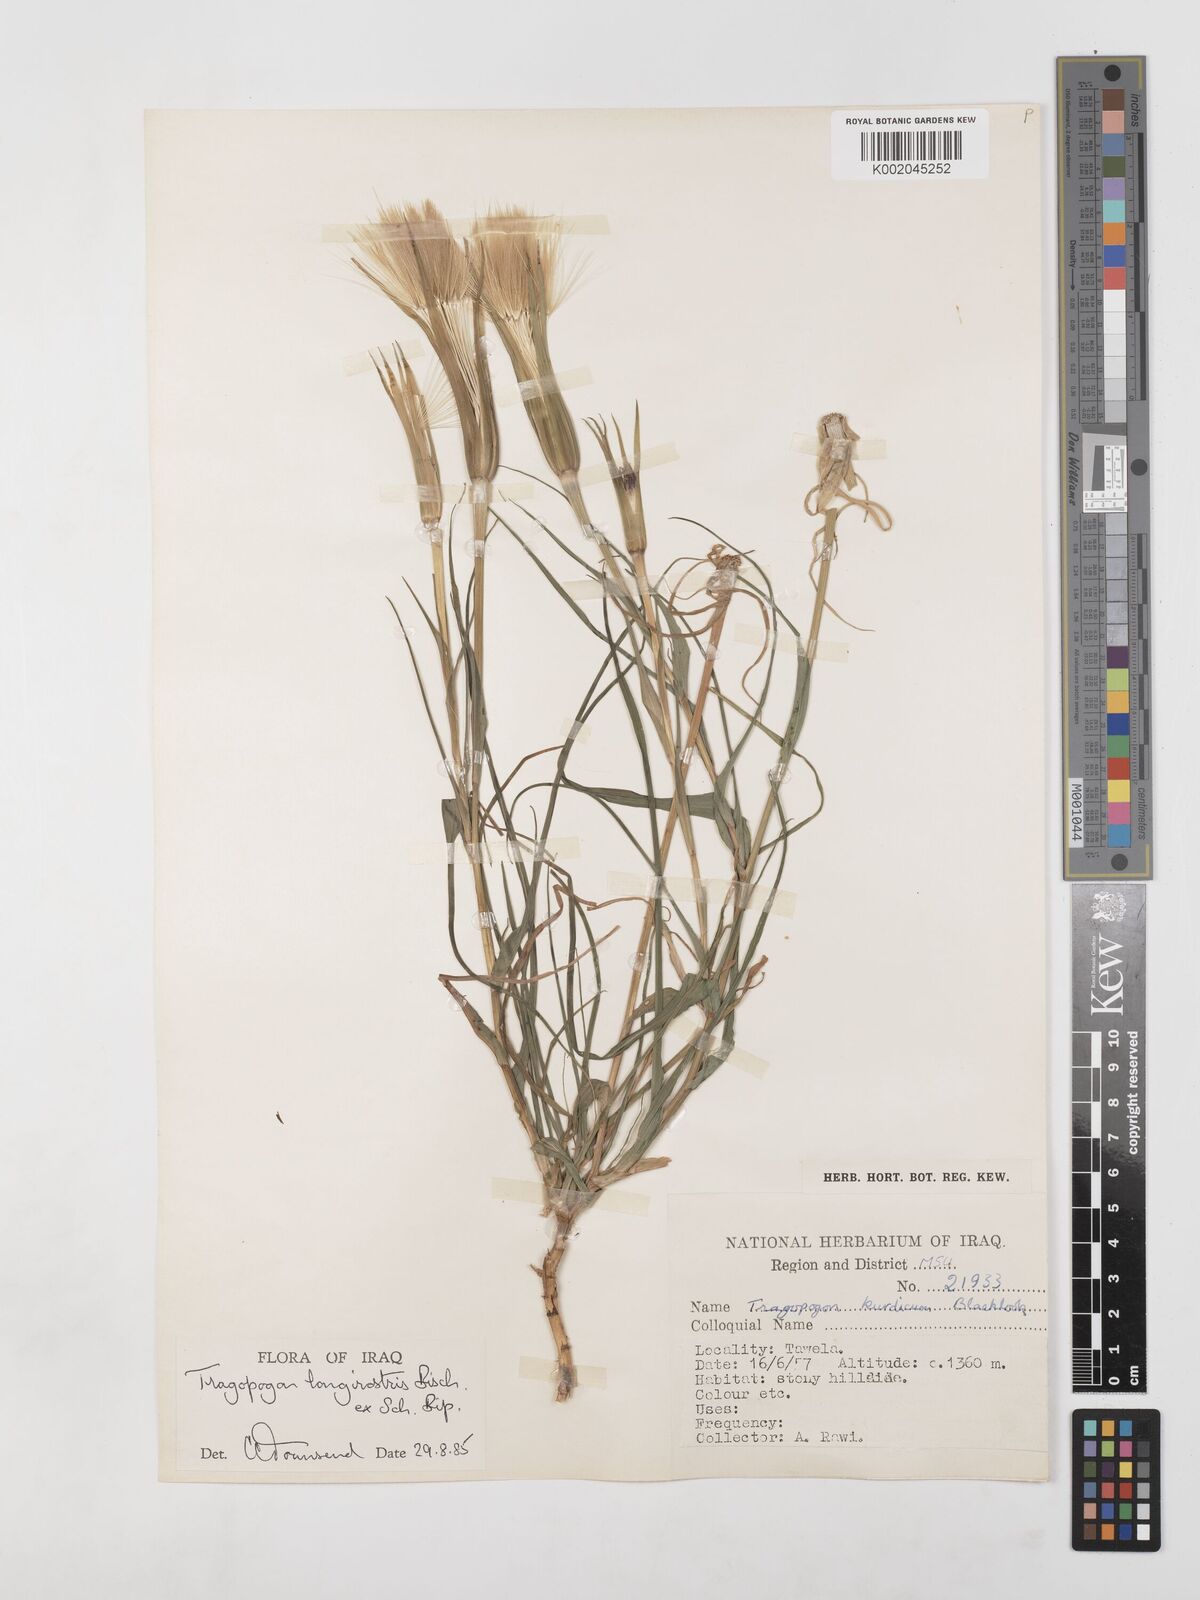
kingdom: Plantae
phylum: Tracheophyta
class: Magnoliopsida
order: Asterales
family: Asteraceae
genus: Tragopogon
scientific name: Tragopogon coelesyriacus
